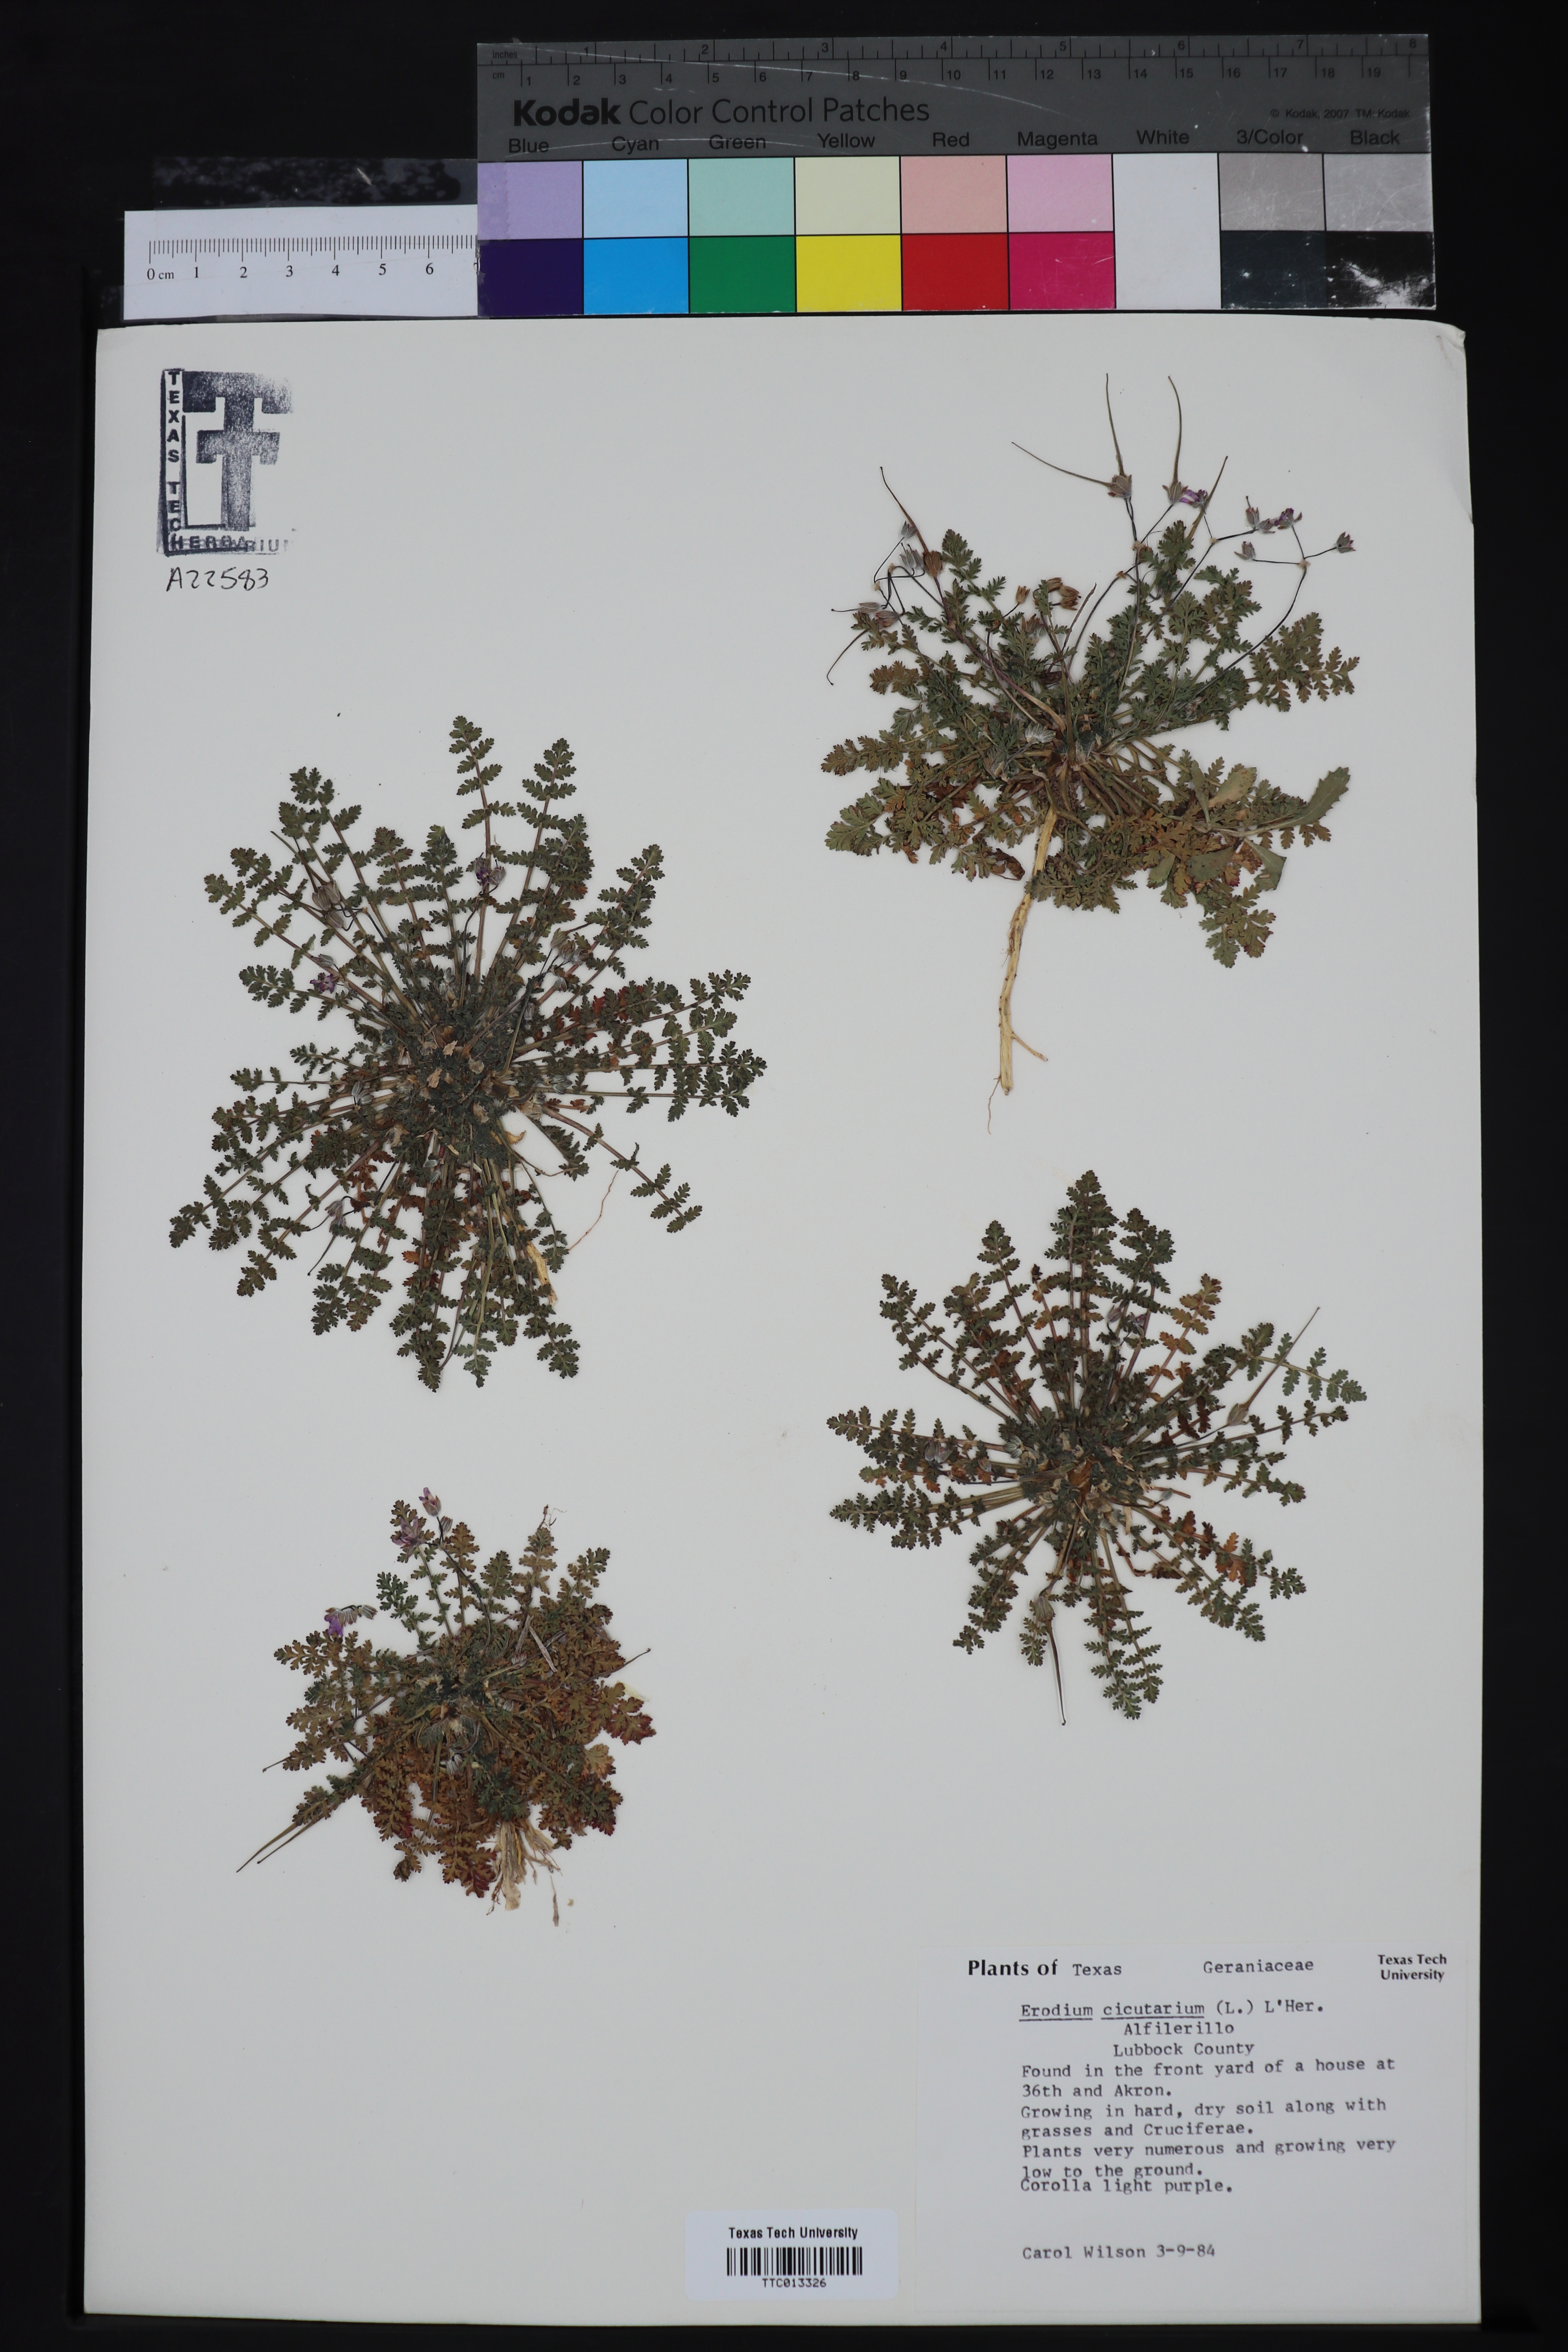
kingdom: Plantae
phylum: Tracheophyta
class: Magnoliopsida
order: Geraniales
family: Geraniaceae
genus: Erodium
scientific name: Erodium cicutarium
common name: Common stork's-bill
